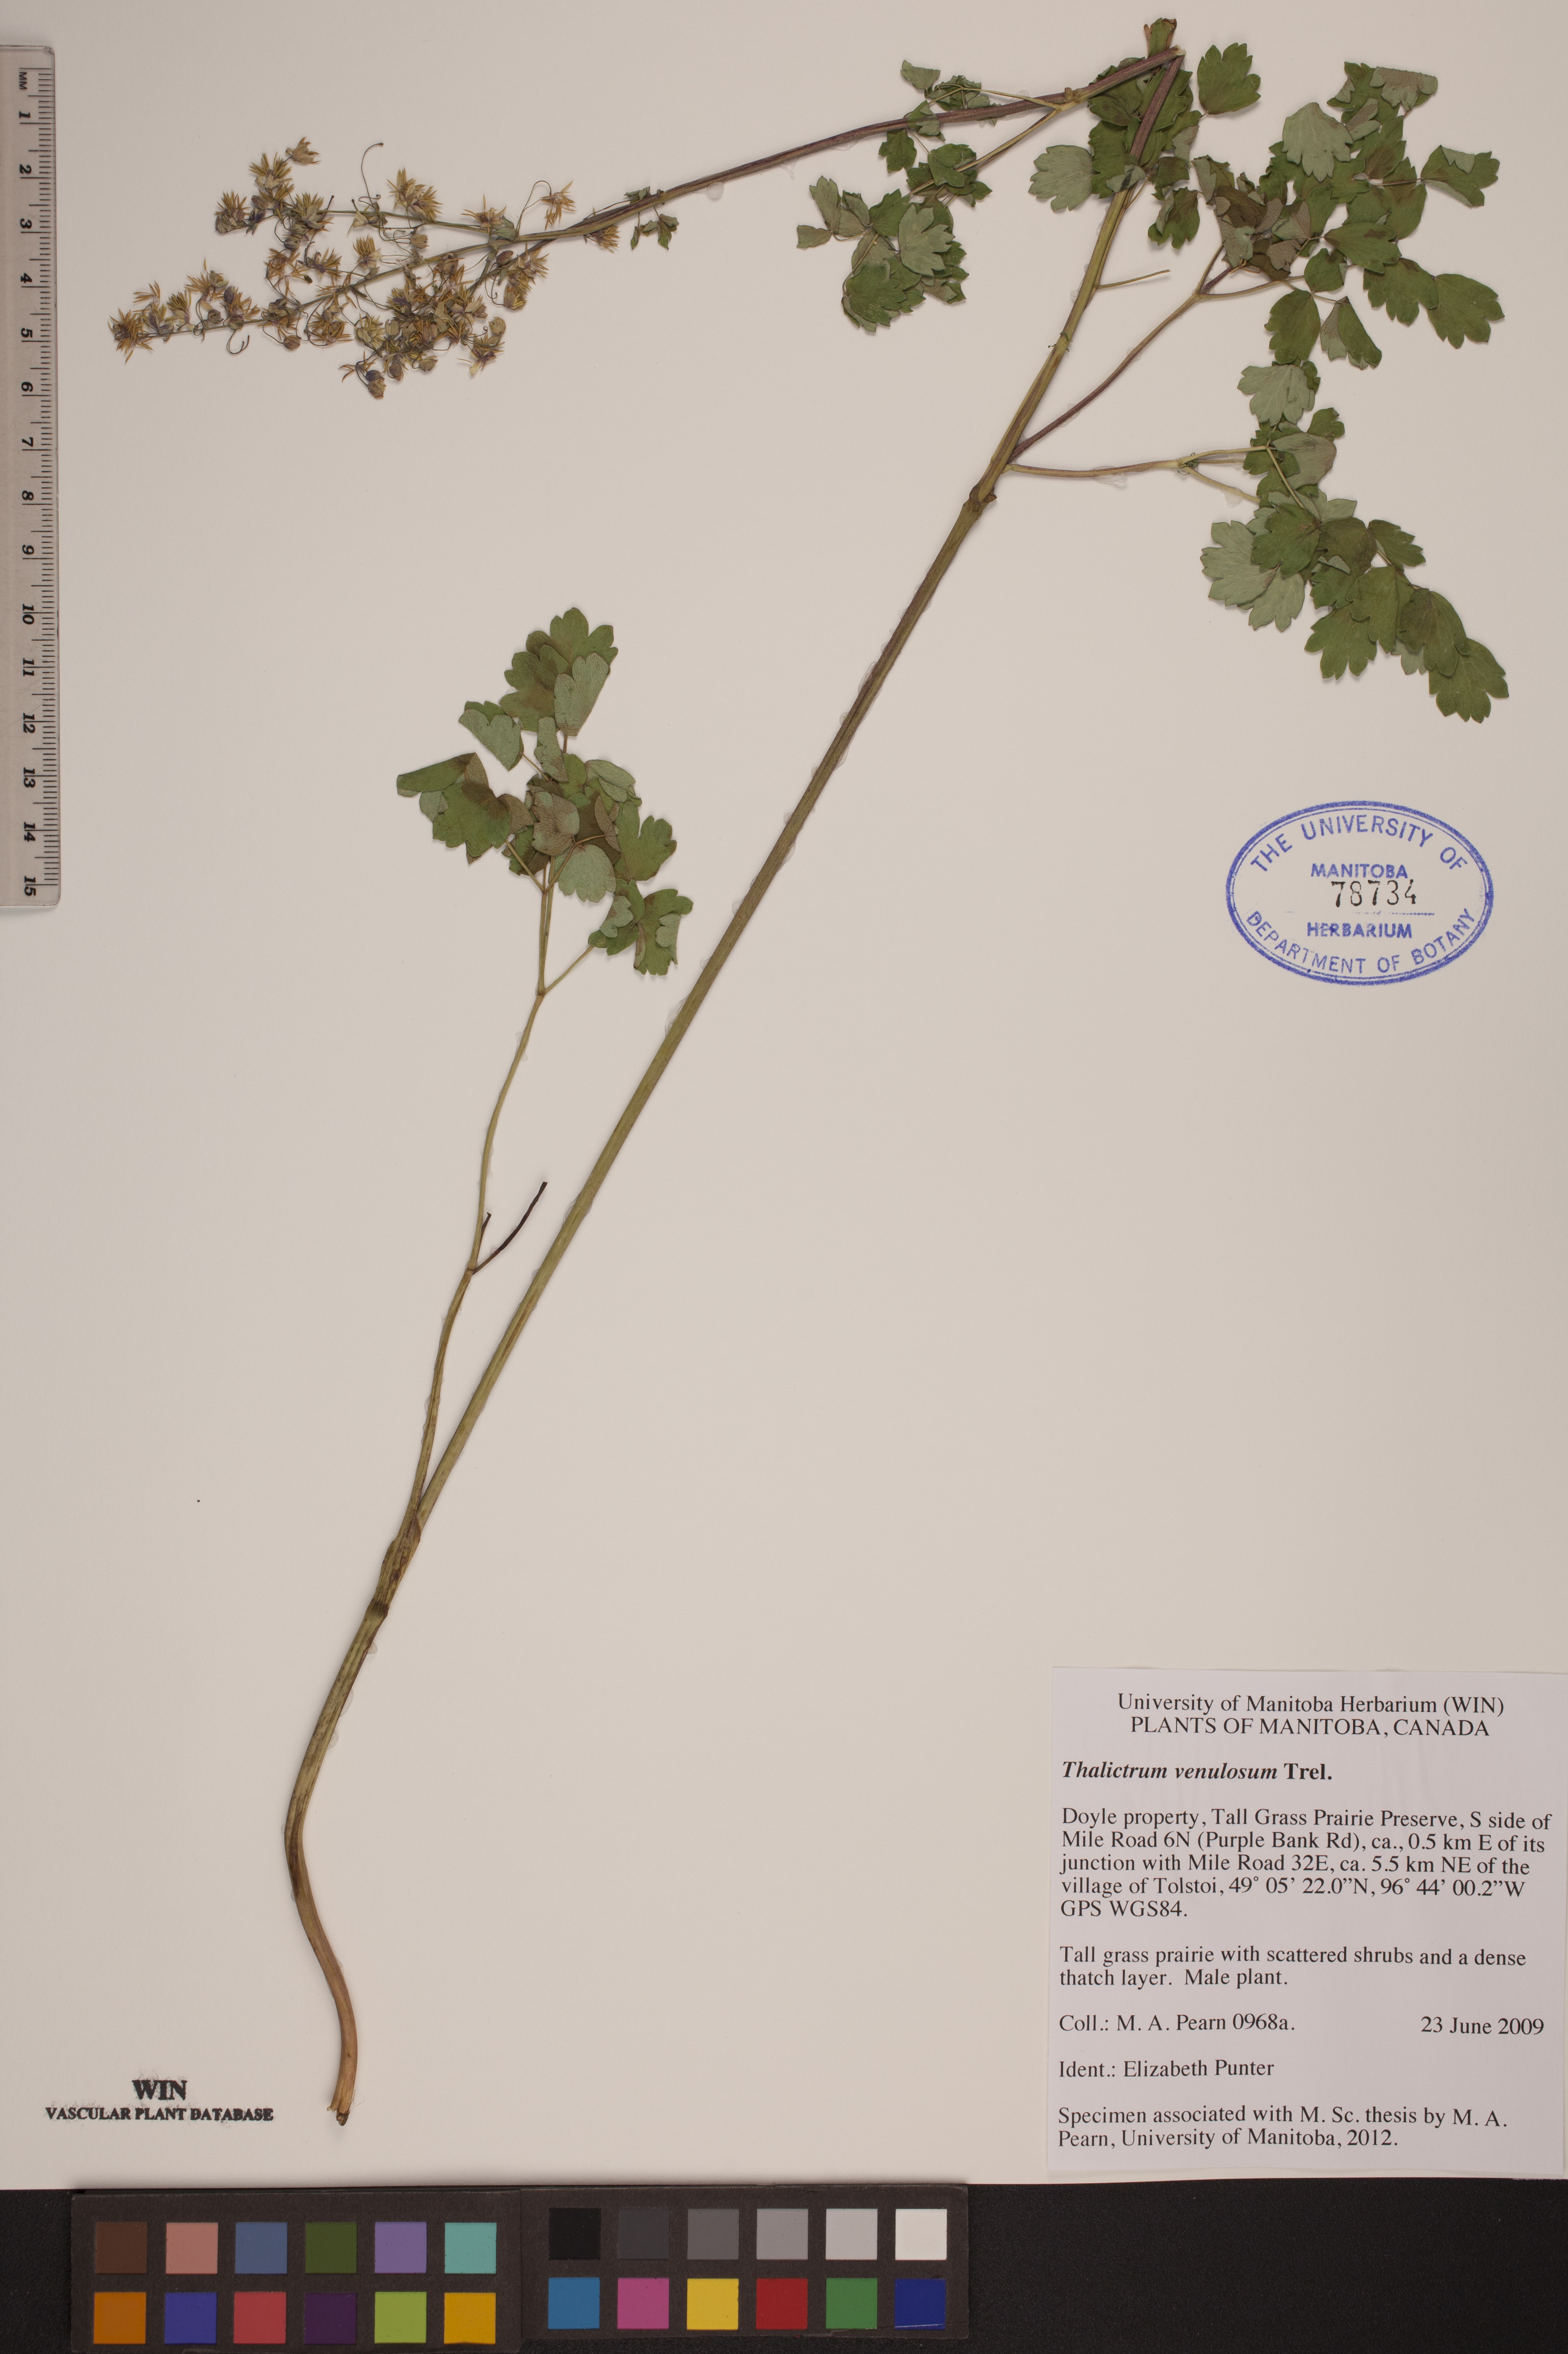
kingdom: Plantae
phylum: Tracheophyta
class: Magnoliopsida
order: Ranunculales
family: Ranunculaceae
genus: Thalictrum
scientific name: Thalictrum venulosum
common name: Early meadow-rue
